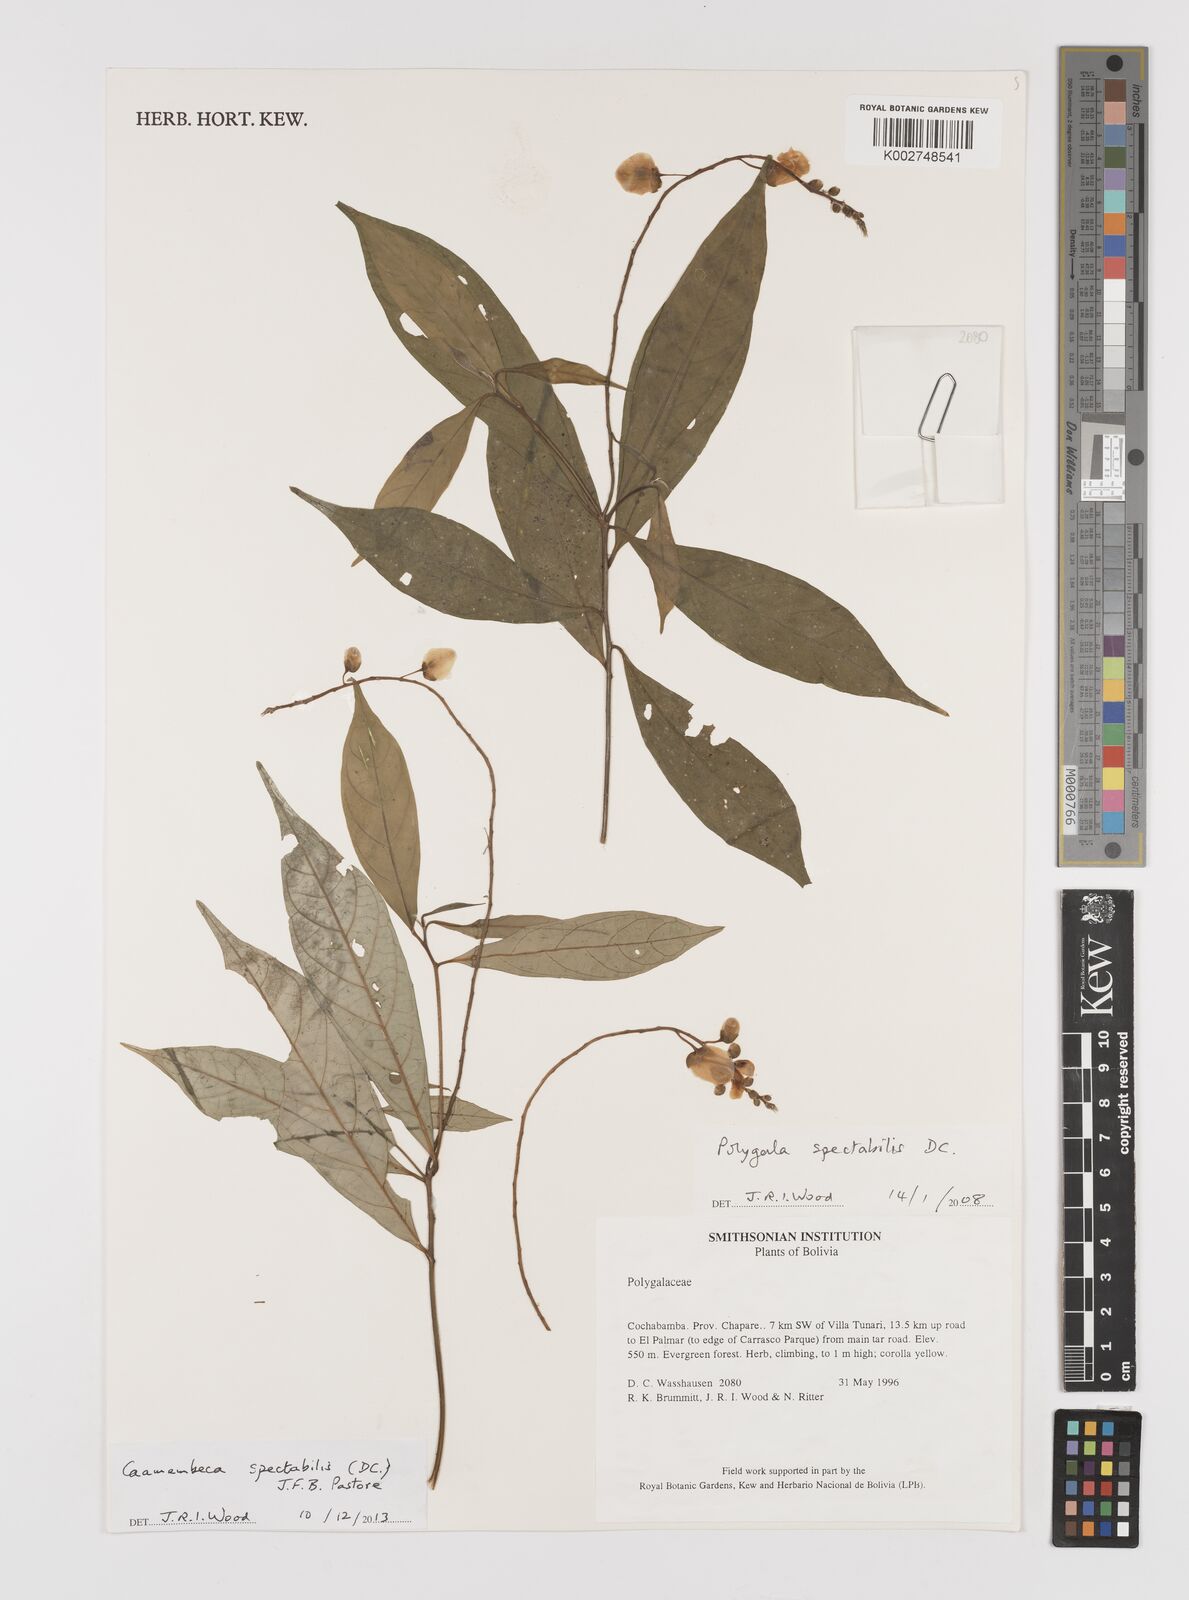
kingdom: Plantae
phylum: Tracheophyta
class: Magnoliopsida
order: Fabales
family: Polygalaceae
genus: Caamembeca
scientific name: Caamembeca spectabilis
